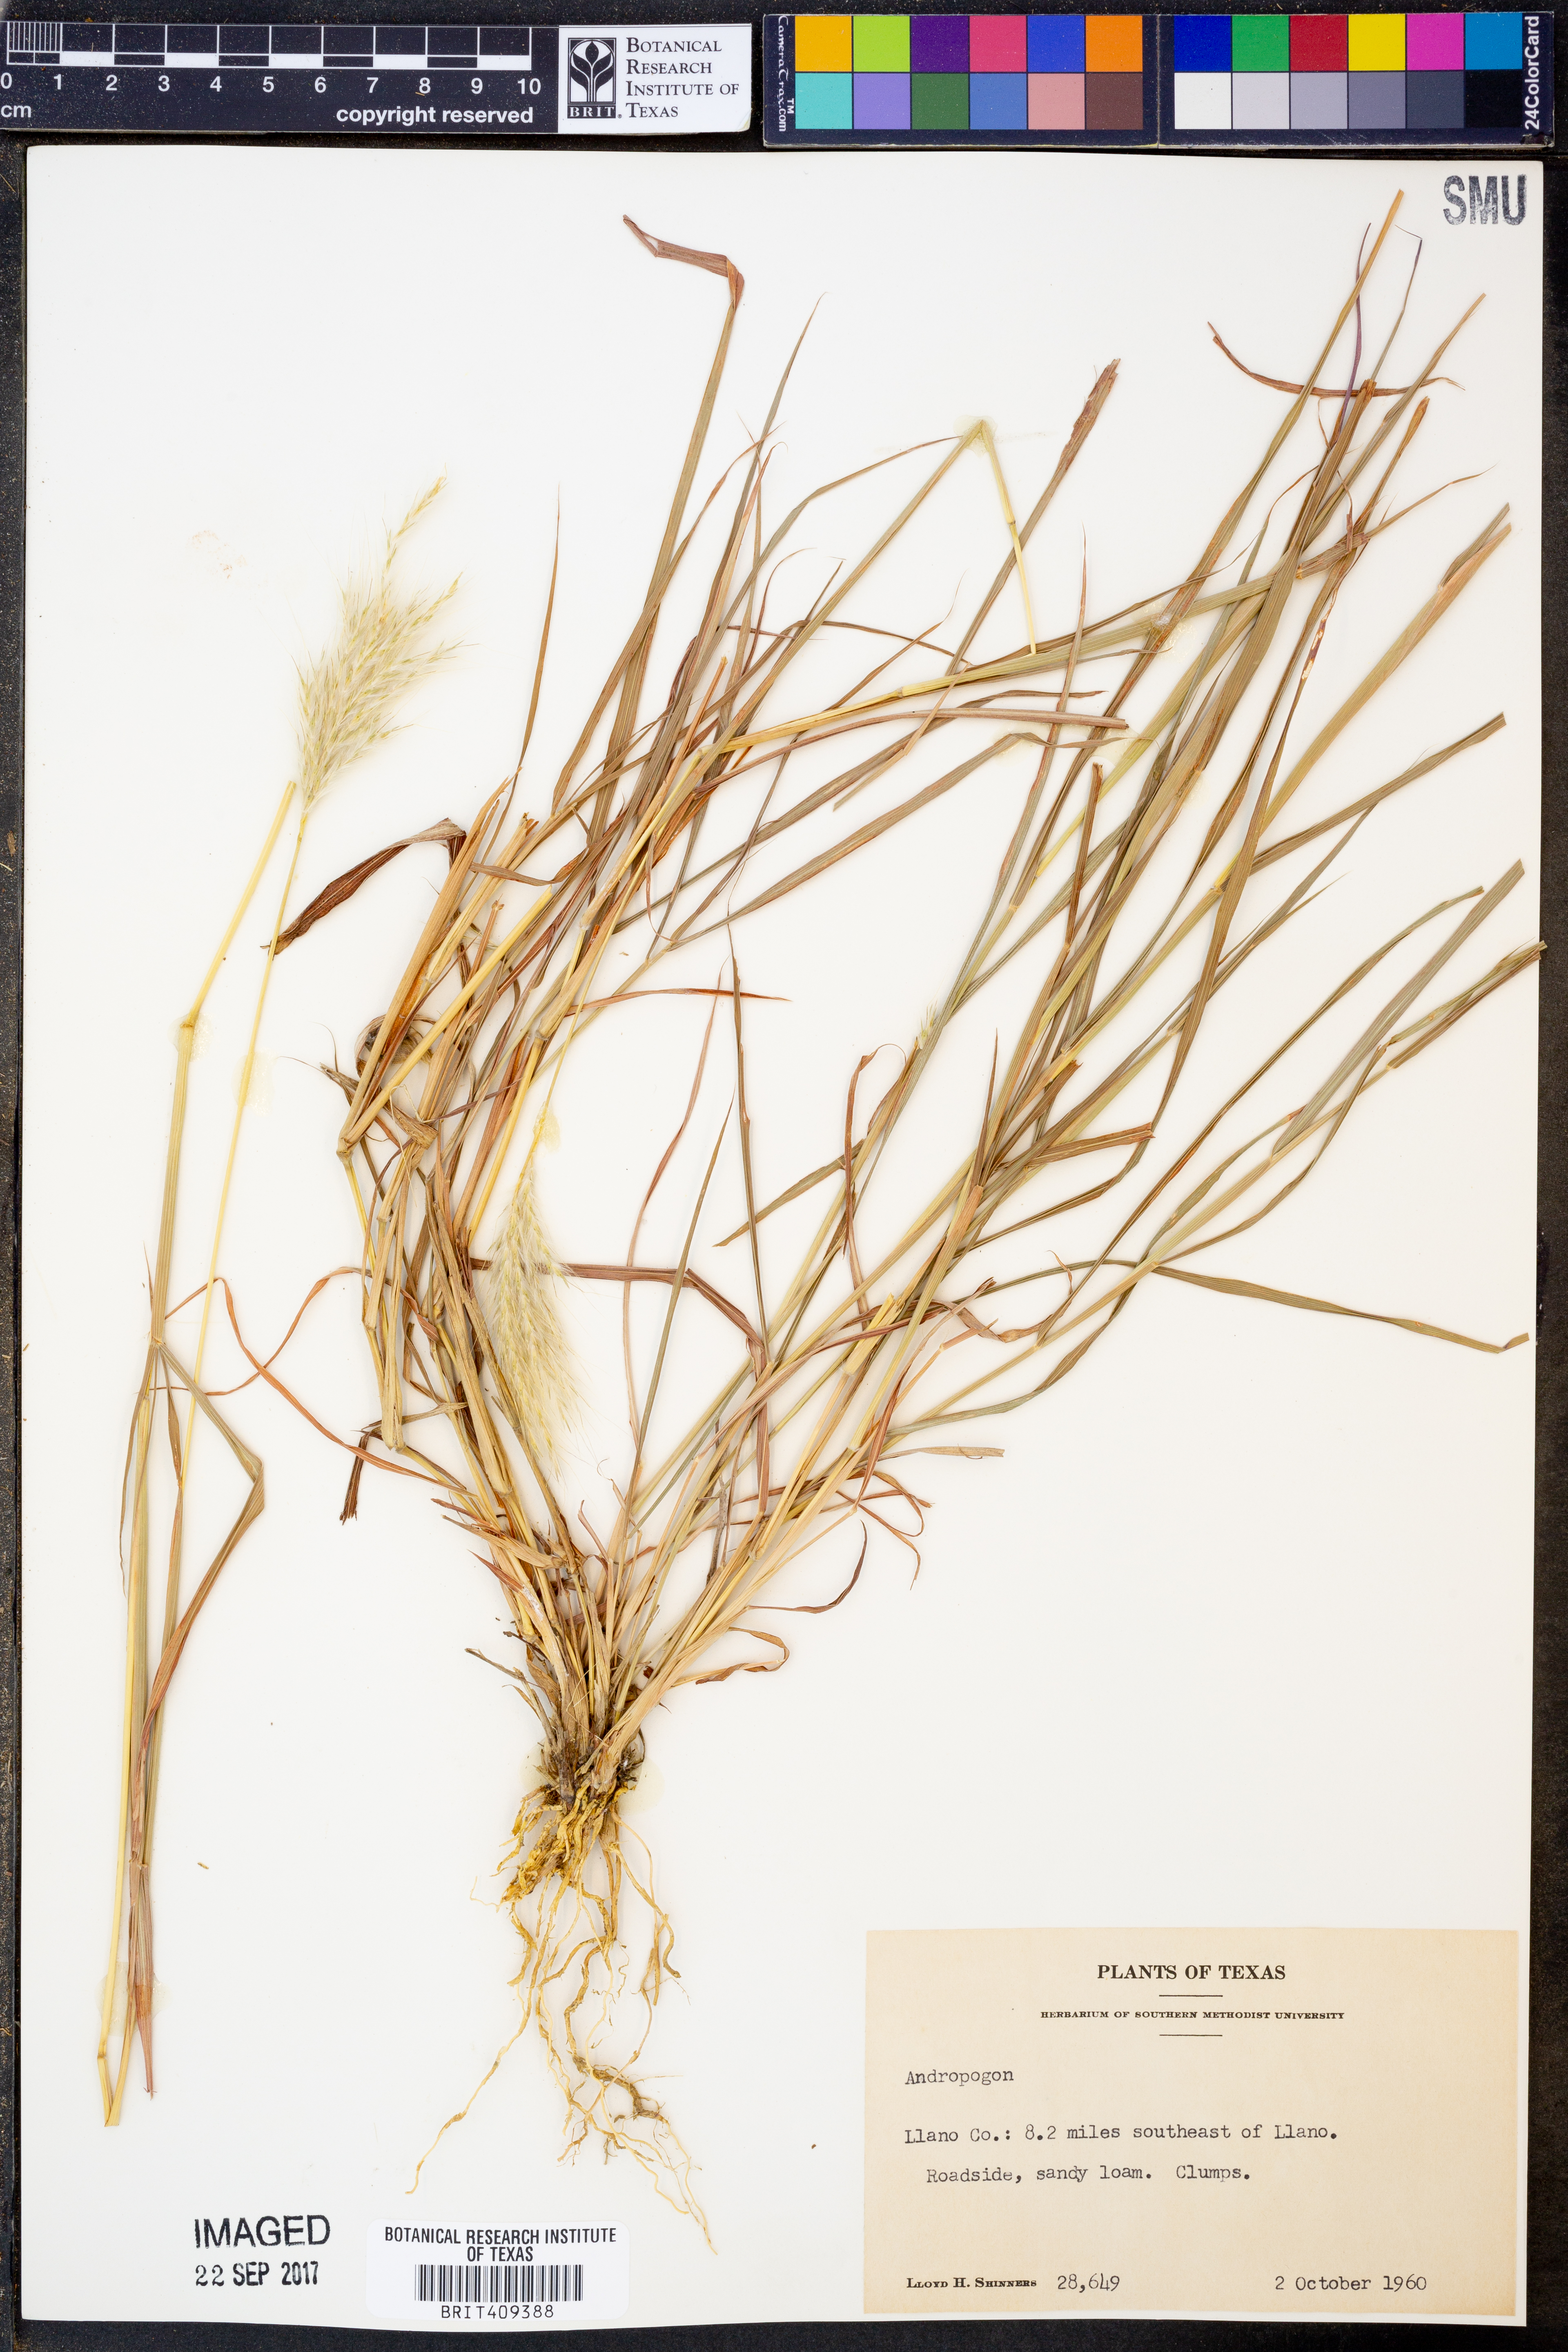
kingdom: Plantae
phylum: Tracheophyta
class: Liliopsida
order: Poales
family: Poaceae
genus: Andropogon
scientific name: Andropogon
